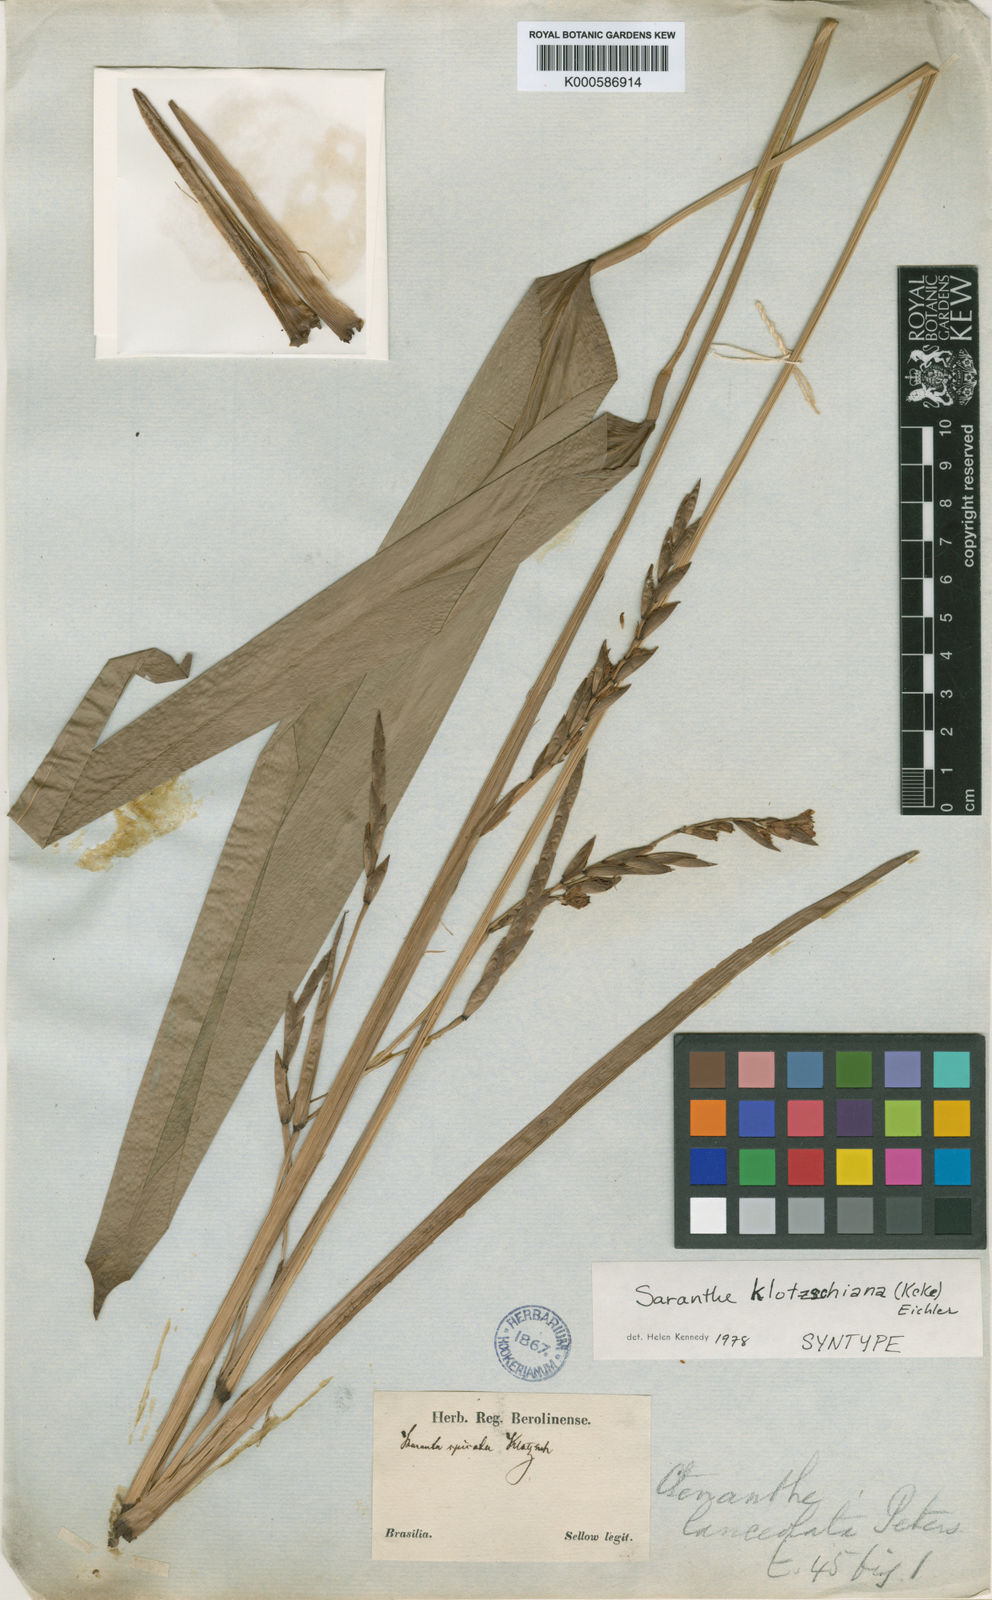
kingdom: Plantae
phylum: Tracheophyta
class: Liliopsida
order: Zingiberales
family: Marantaceae
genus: Saranthe
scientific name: Saranthe
